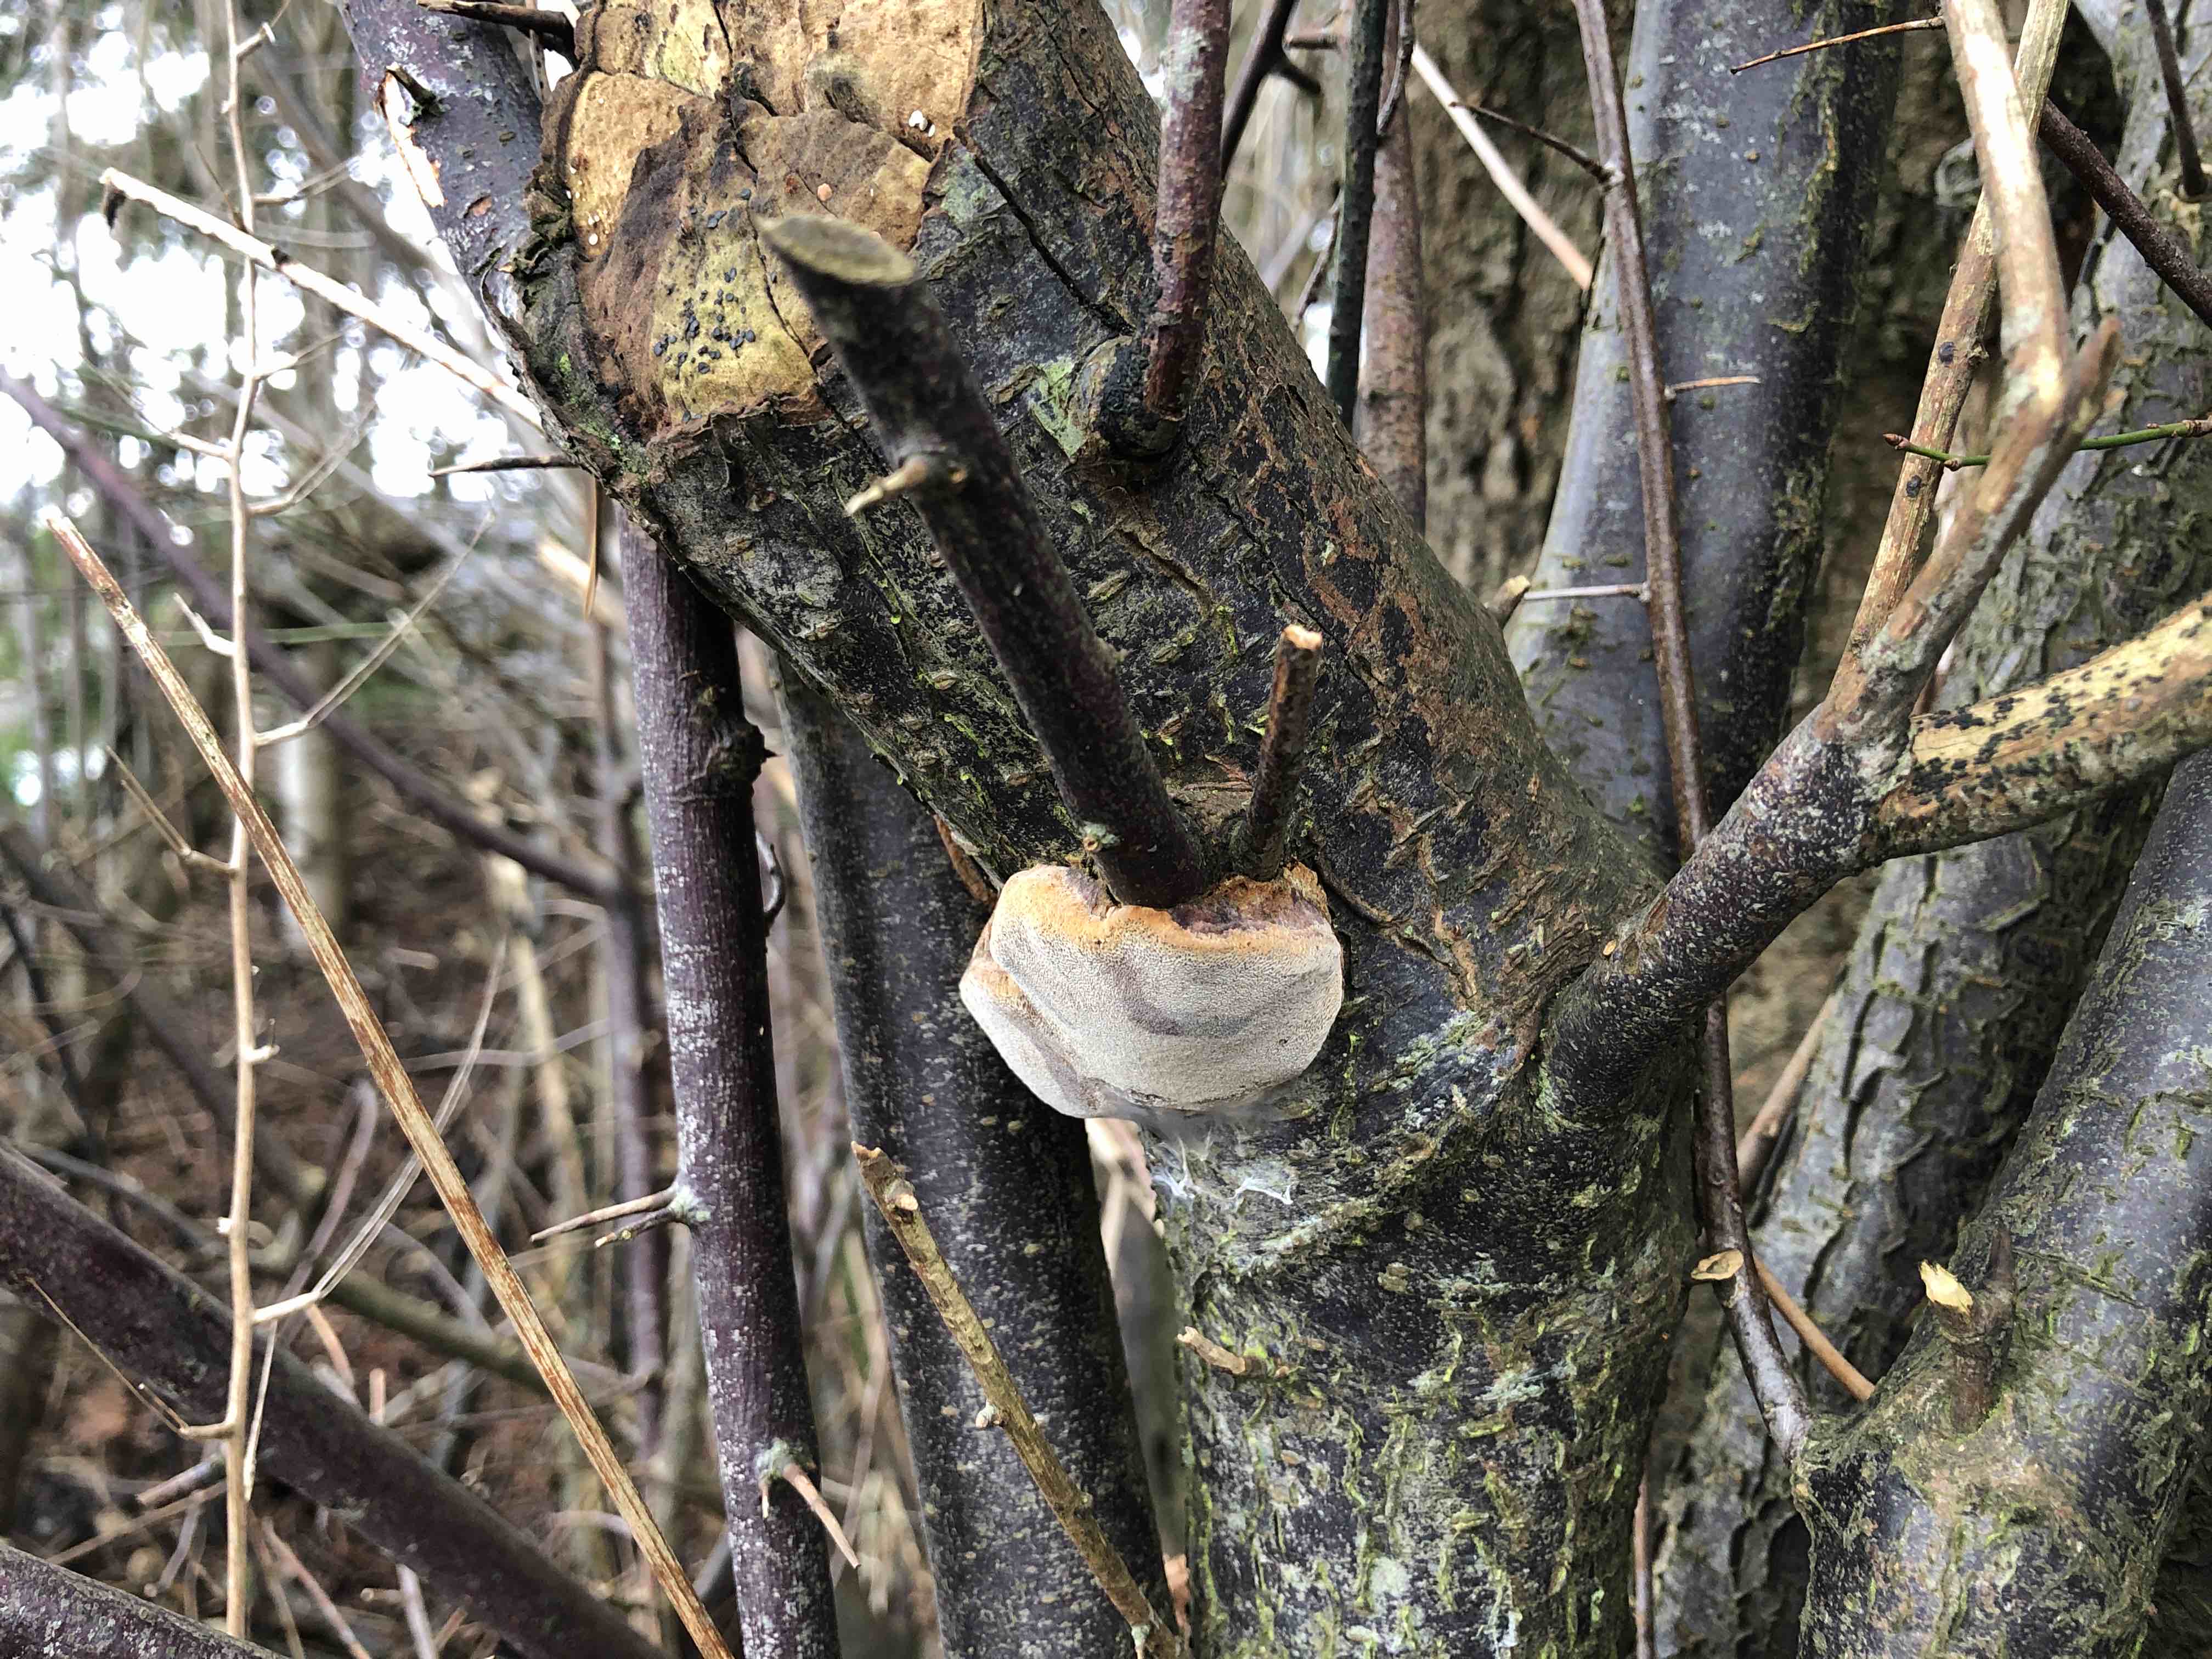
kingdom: Fungi
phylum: Basidiomycota
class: Agaricomycetes
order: Hymenochaetales
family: Hymenochaetaceae
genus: Phellinus
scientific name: Phellinus pomaceus
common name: blomme-ildporesvamp
